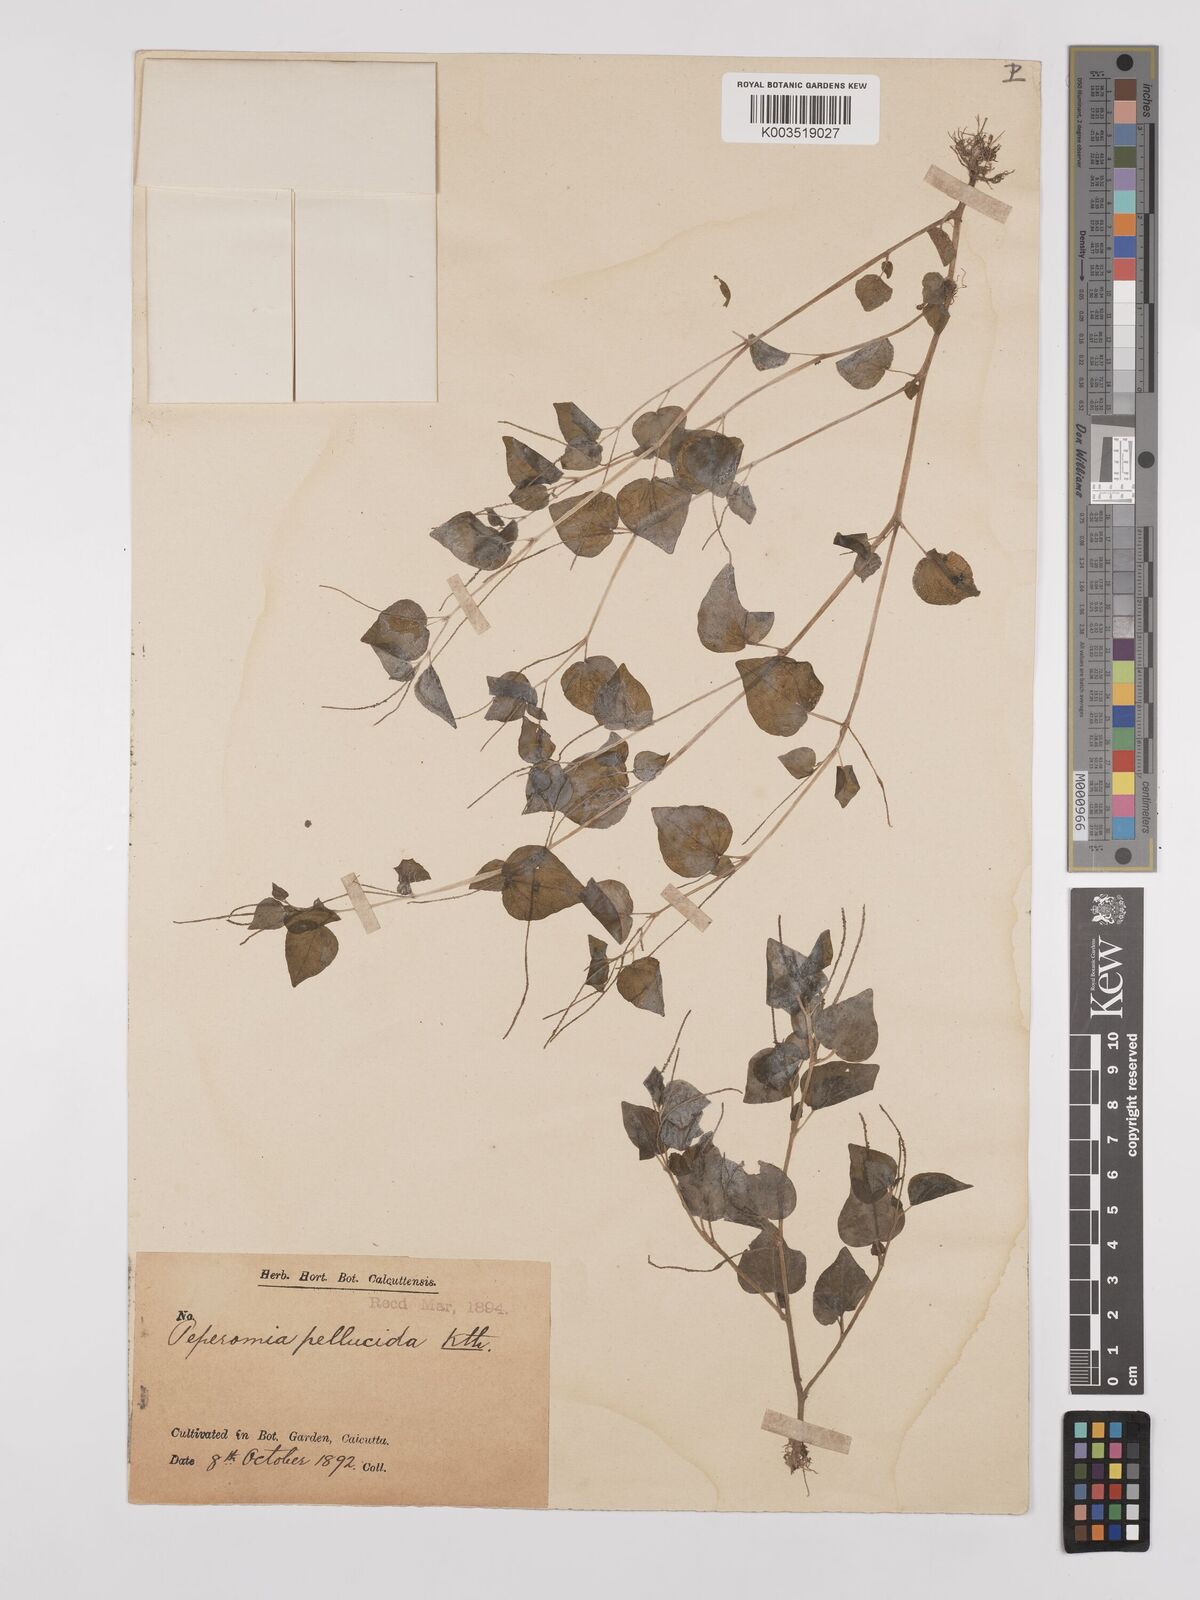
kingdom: Plantae
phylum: Tracheophyta
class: Magnoliopsida
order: Piperales
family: Piperaceae
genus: Peperomia
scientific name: Peperomia pellucida
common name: Man to man
